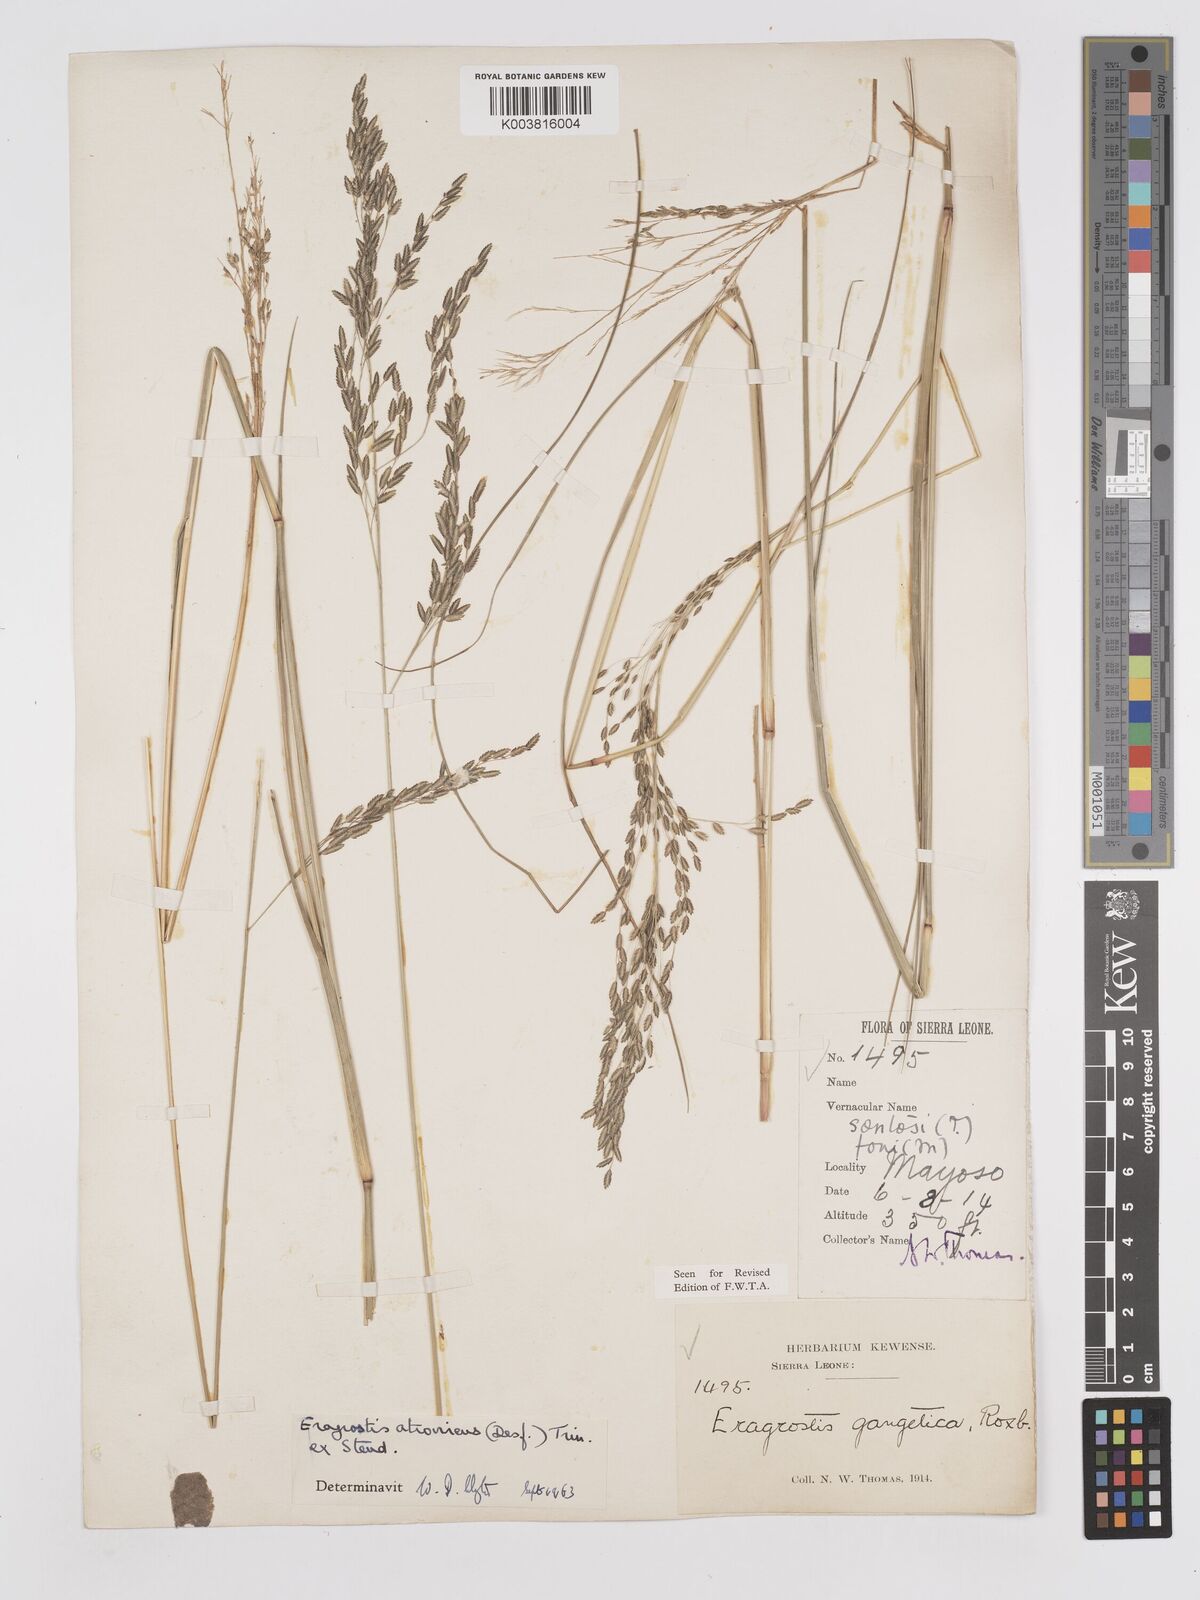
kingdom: Plantae
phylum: Tracheophyta
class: Liliopsida
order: Poales
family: Poaceae
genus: Eragrostis
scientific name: Eragrostis atrovirens
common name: Thalia lovegrass
